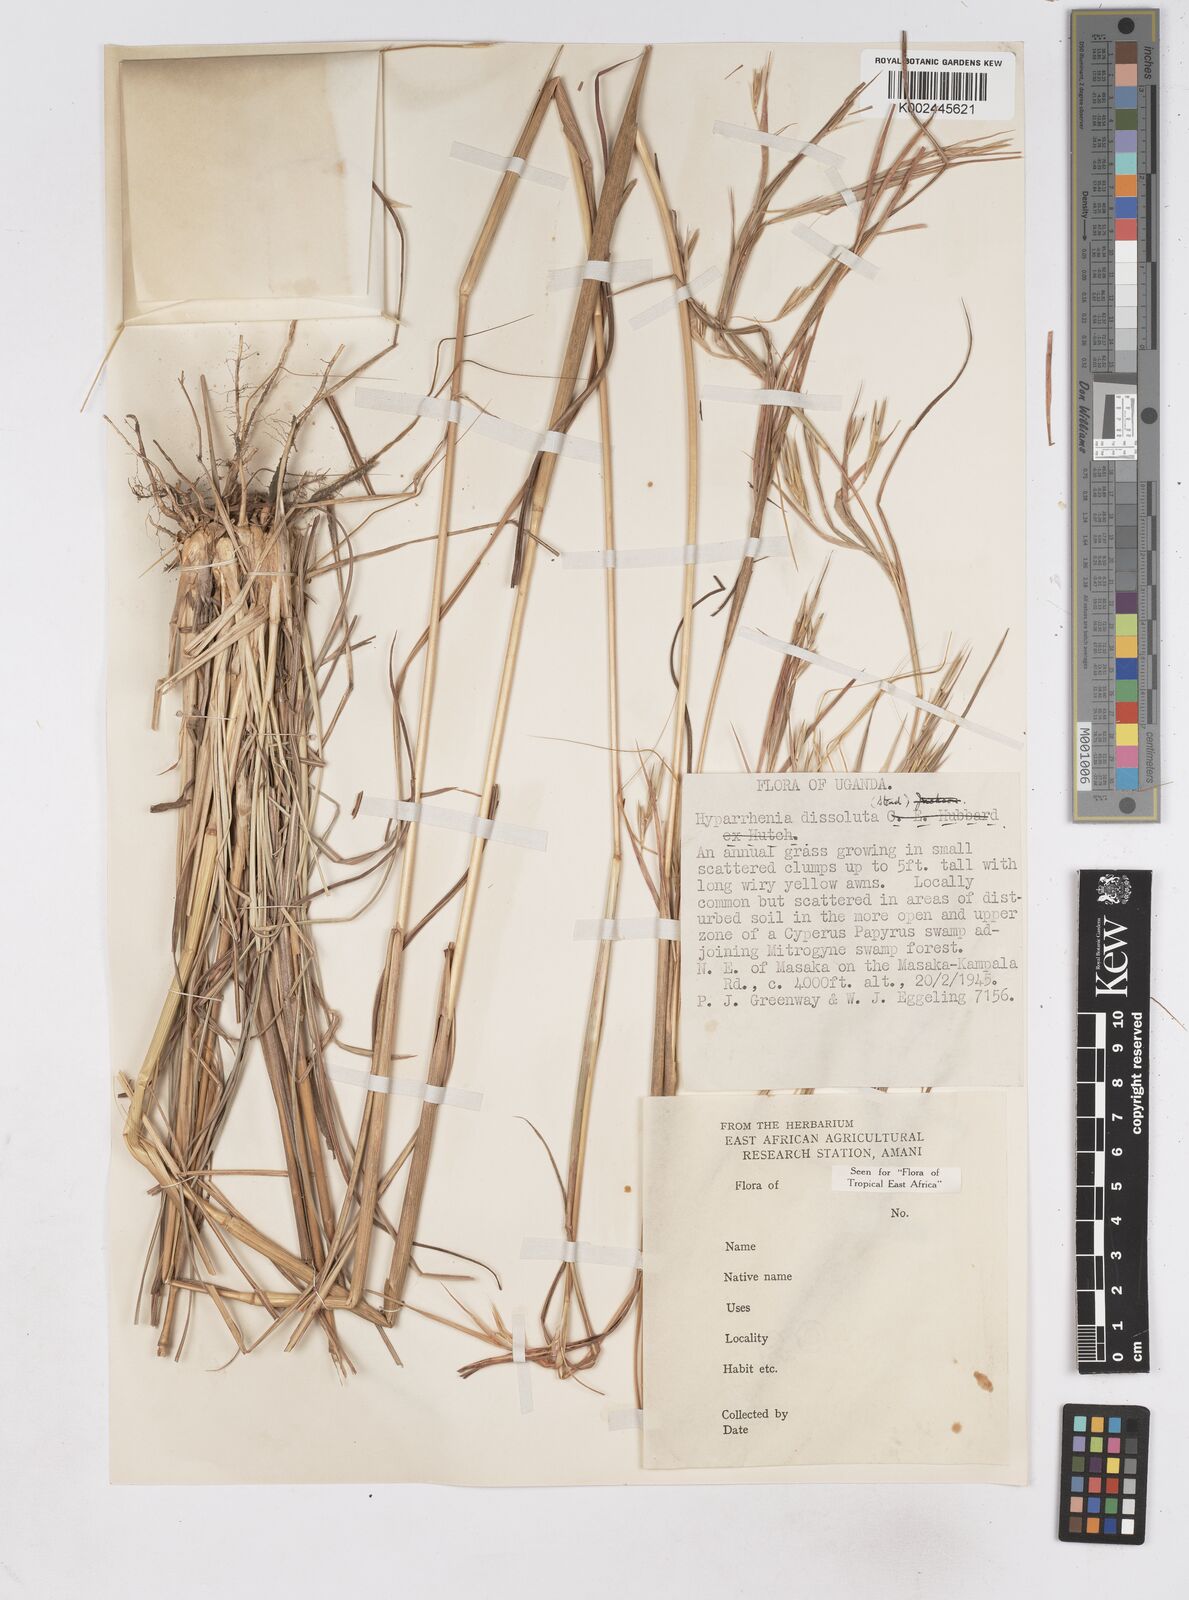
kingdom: Plantae
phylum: Tracheophyta
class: Liliopsida
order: Poales
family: Poaceae
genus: Hyperthelia
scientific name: Hyperthelia dissoluta
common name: Yellow thatching grass
